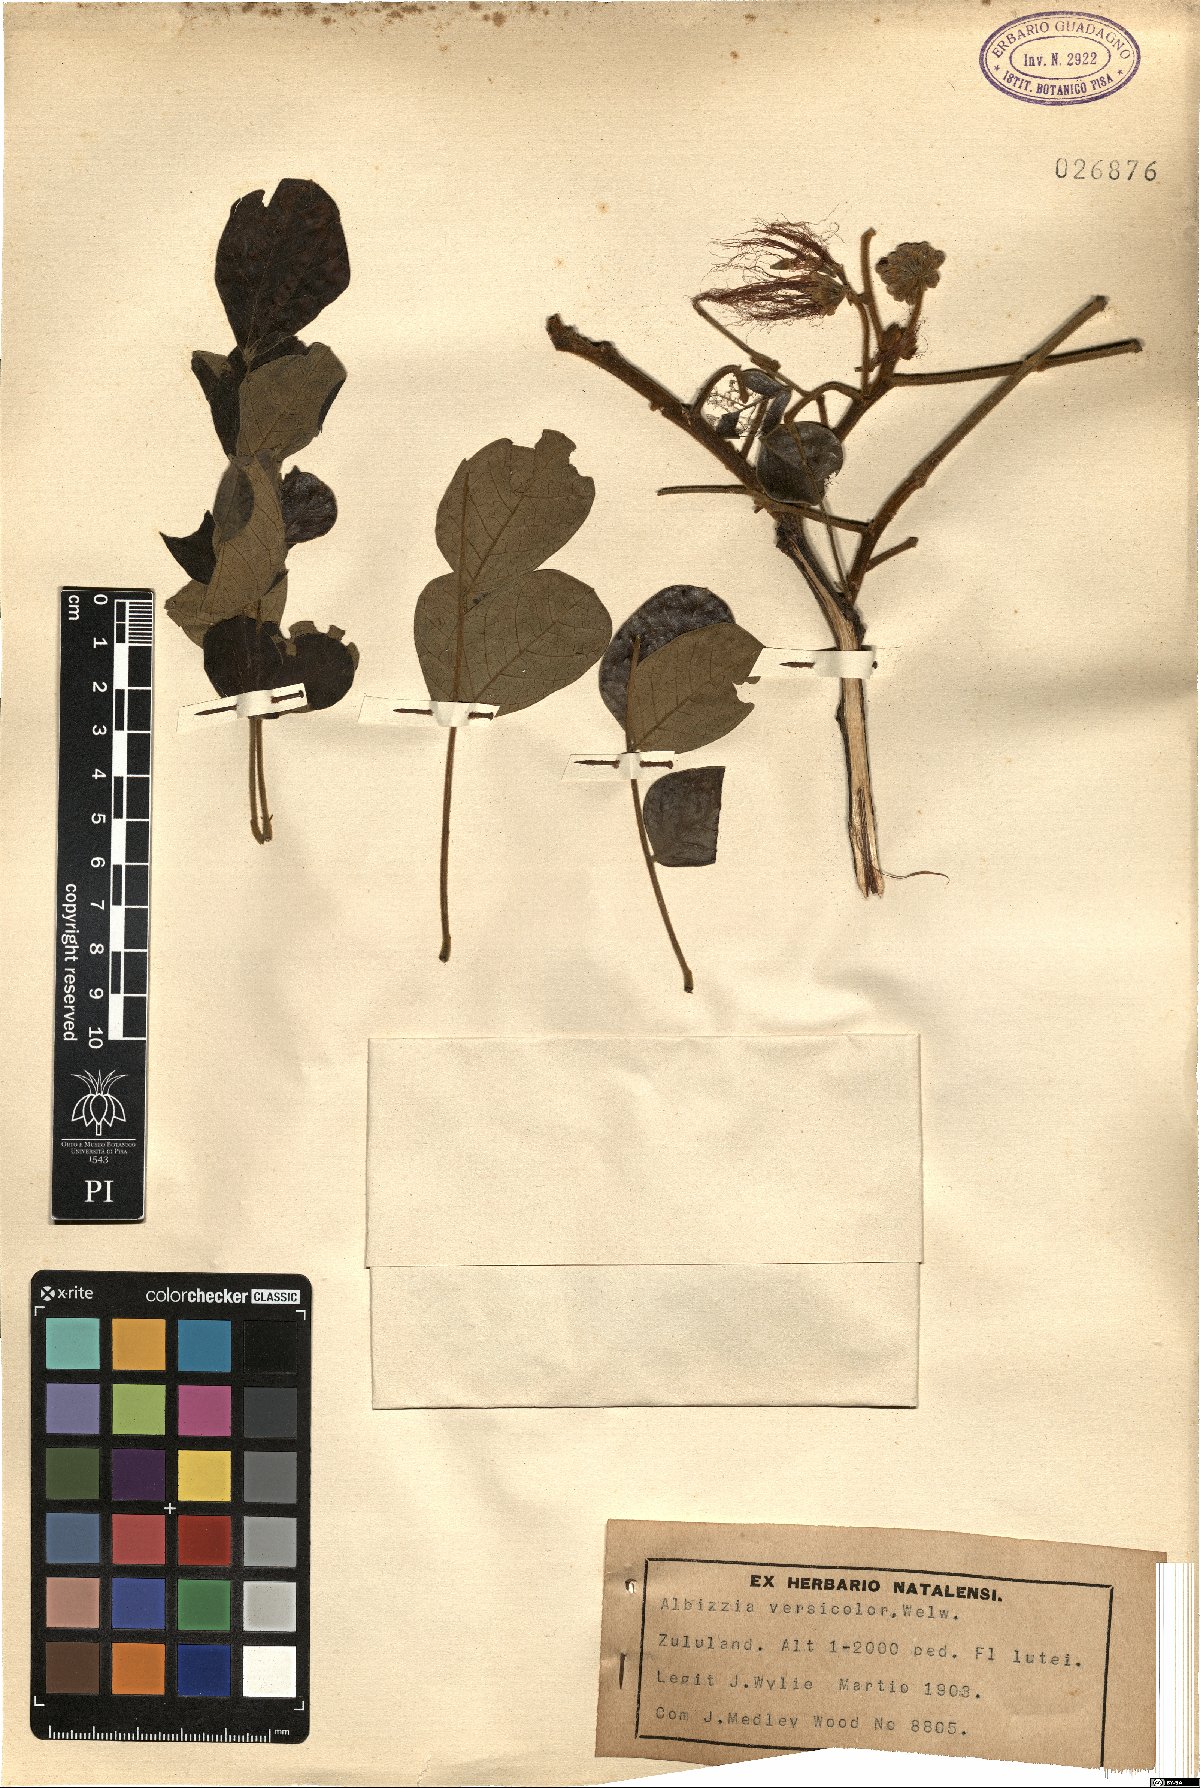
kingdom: Plantae
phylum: Tracheophyta
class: Magnoliopsida
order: Fabales
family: Fabaceae
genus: Albizia
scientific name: Albizia versicolor
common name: Poisonpod
